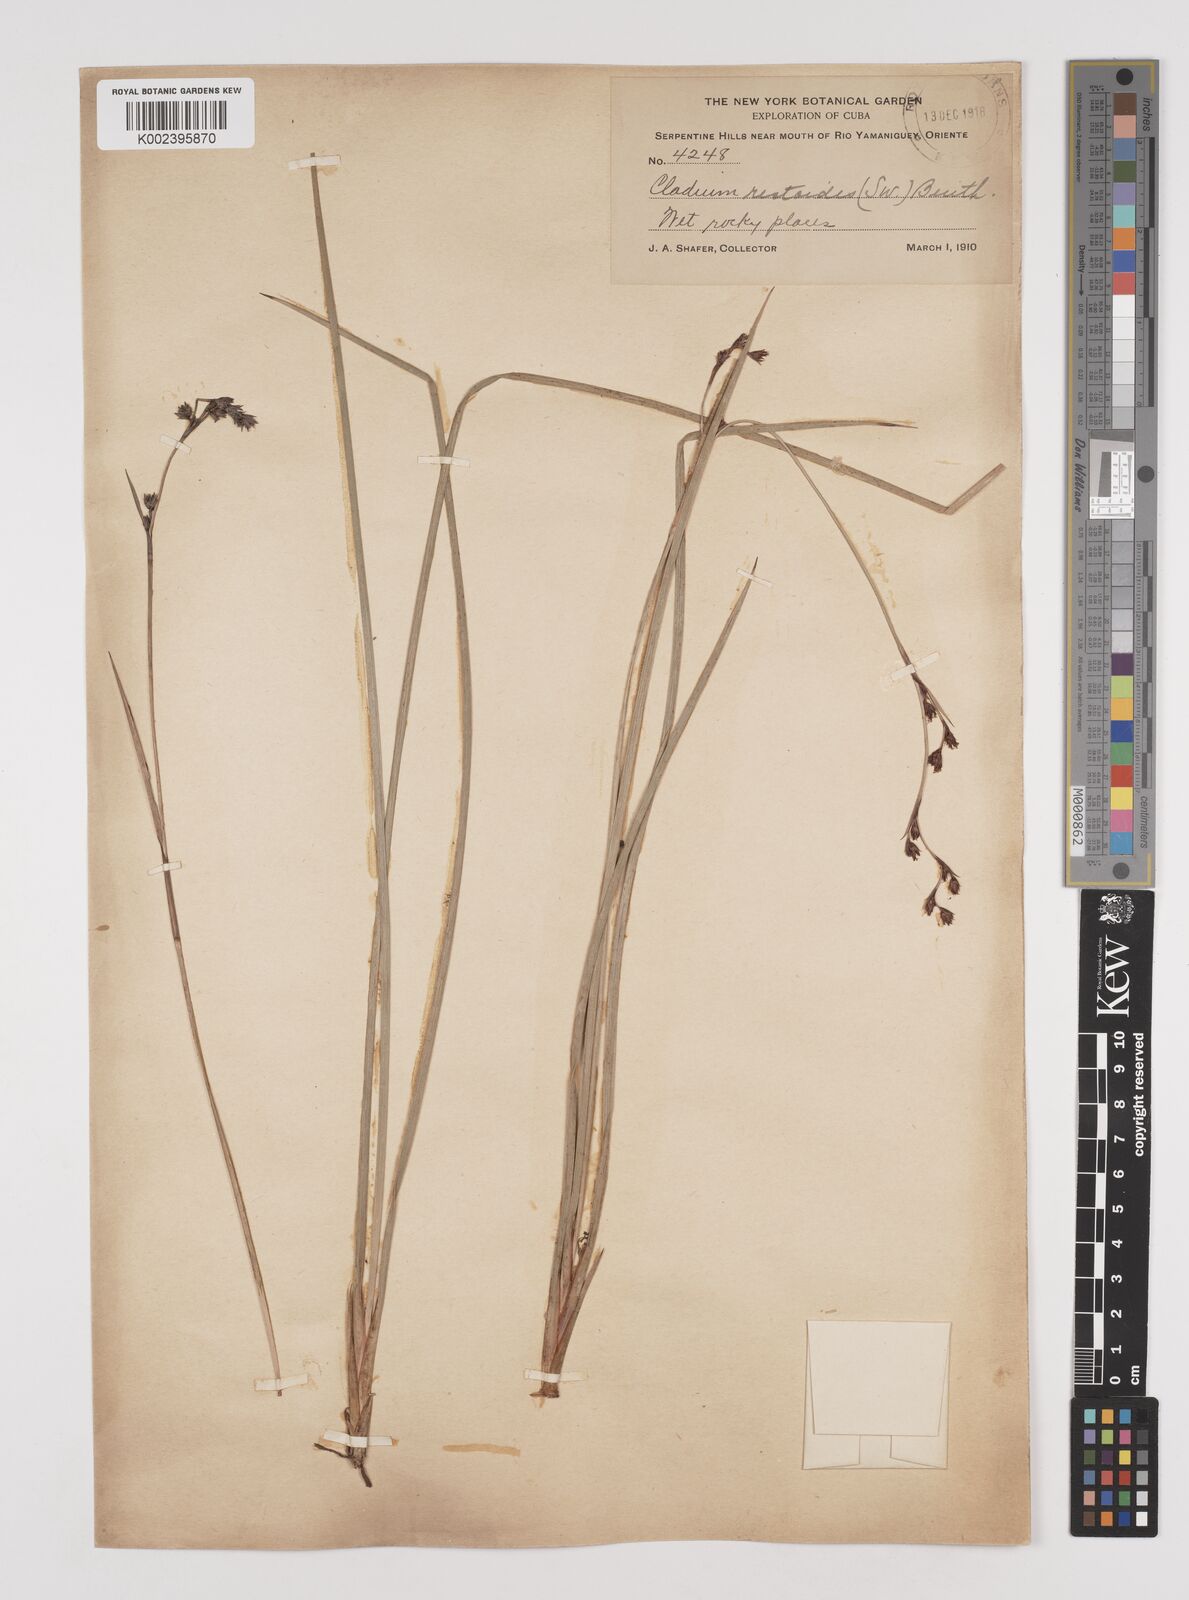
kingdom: Plantae
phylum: Tracheophyta
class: Liliopsida
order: Poales
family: Cyperaceae
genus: Machaerina
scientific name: Machaerina restioides
